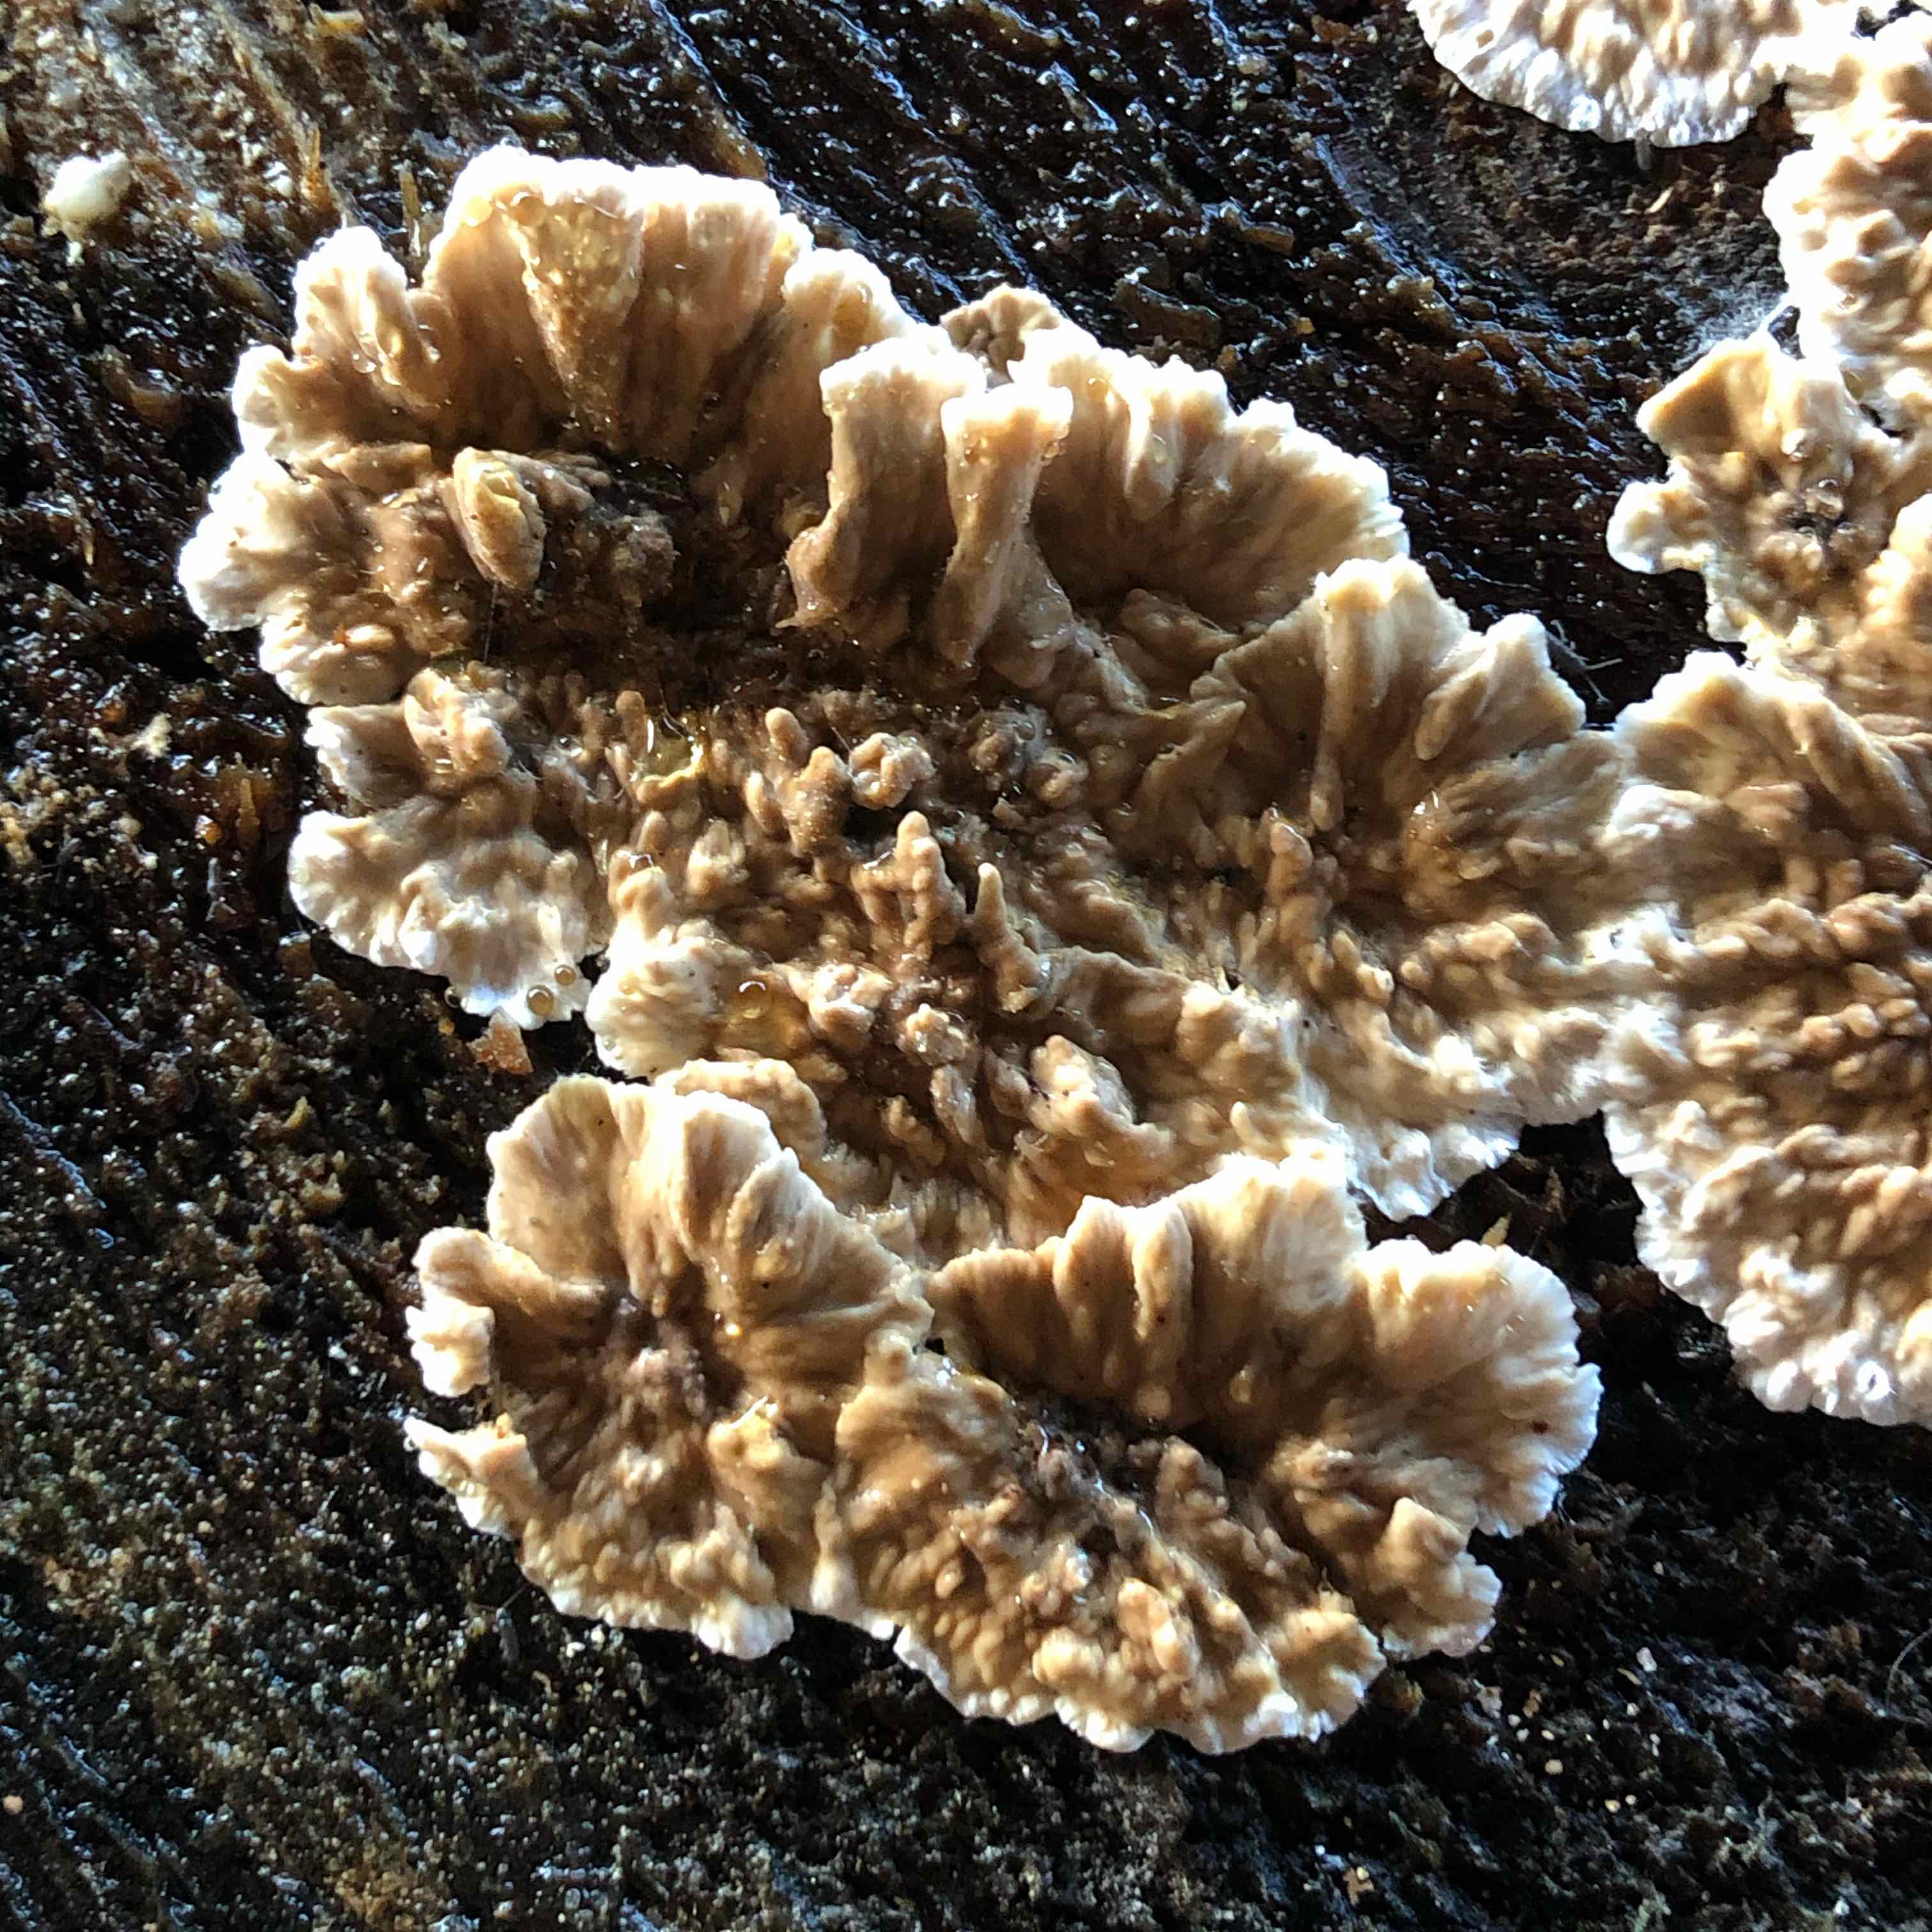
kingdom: Fungi
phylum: Basidiomycota
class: Agaricomycetes
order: Russulales
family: Stereaceae
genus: Stereum
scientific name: Stereum sanguinolentum
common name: blødende lædersvamp
